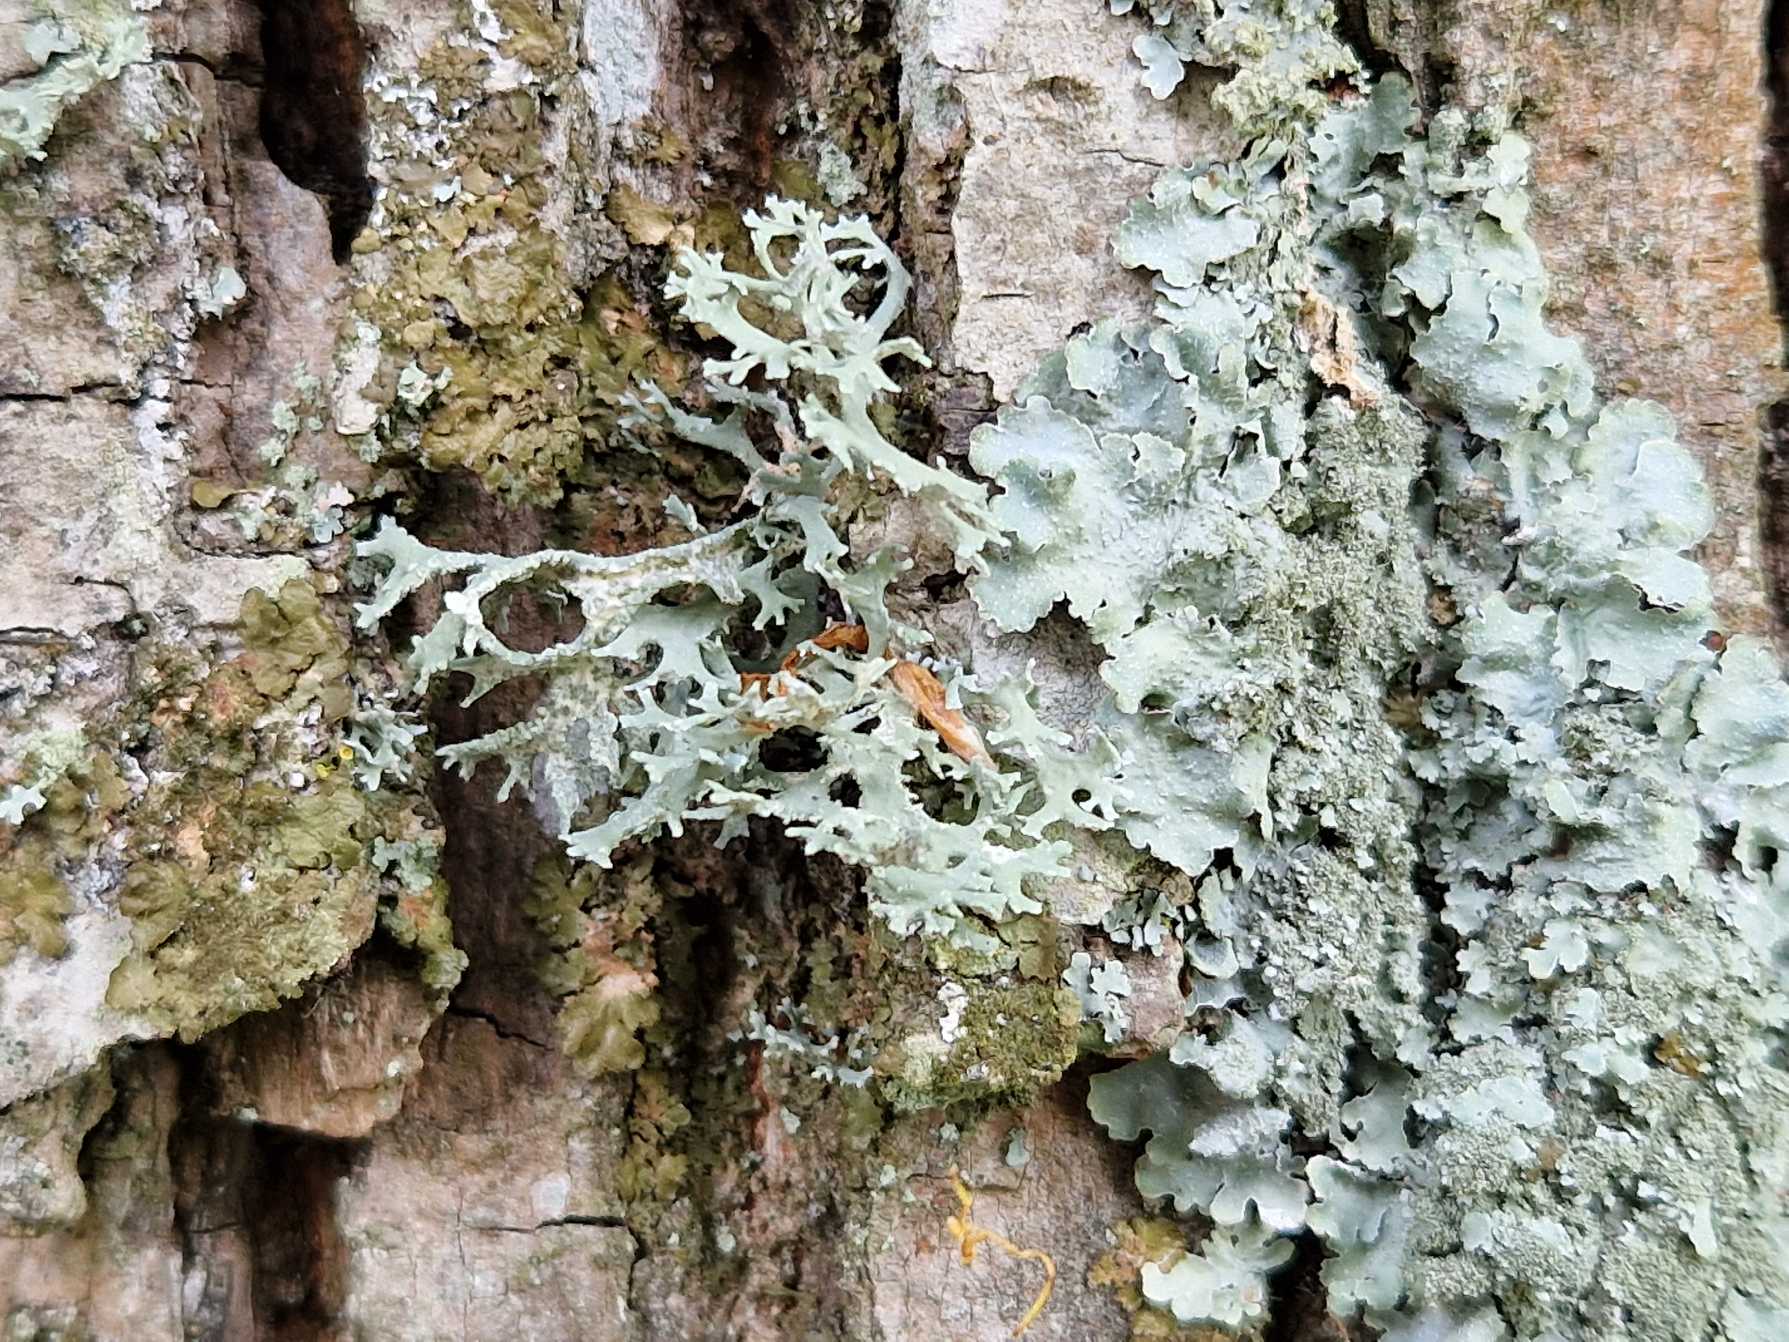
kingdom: Fungi
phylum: Ascomycota
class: Lecanoromycetes
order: Lecanorales
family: Parmeliaceae
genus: Evernia
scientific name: Evernia prunastri
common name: Almindelig slåenlav
